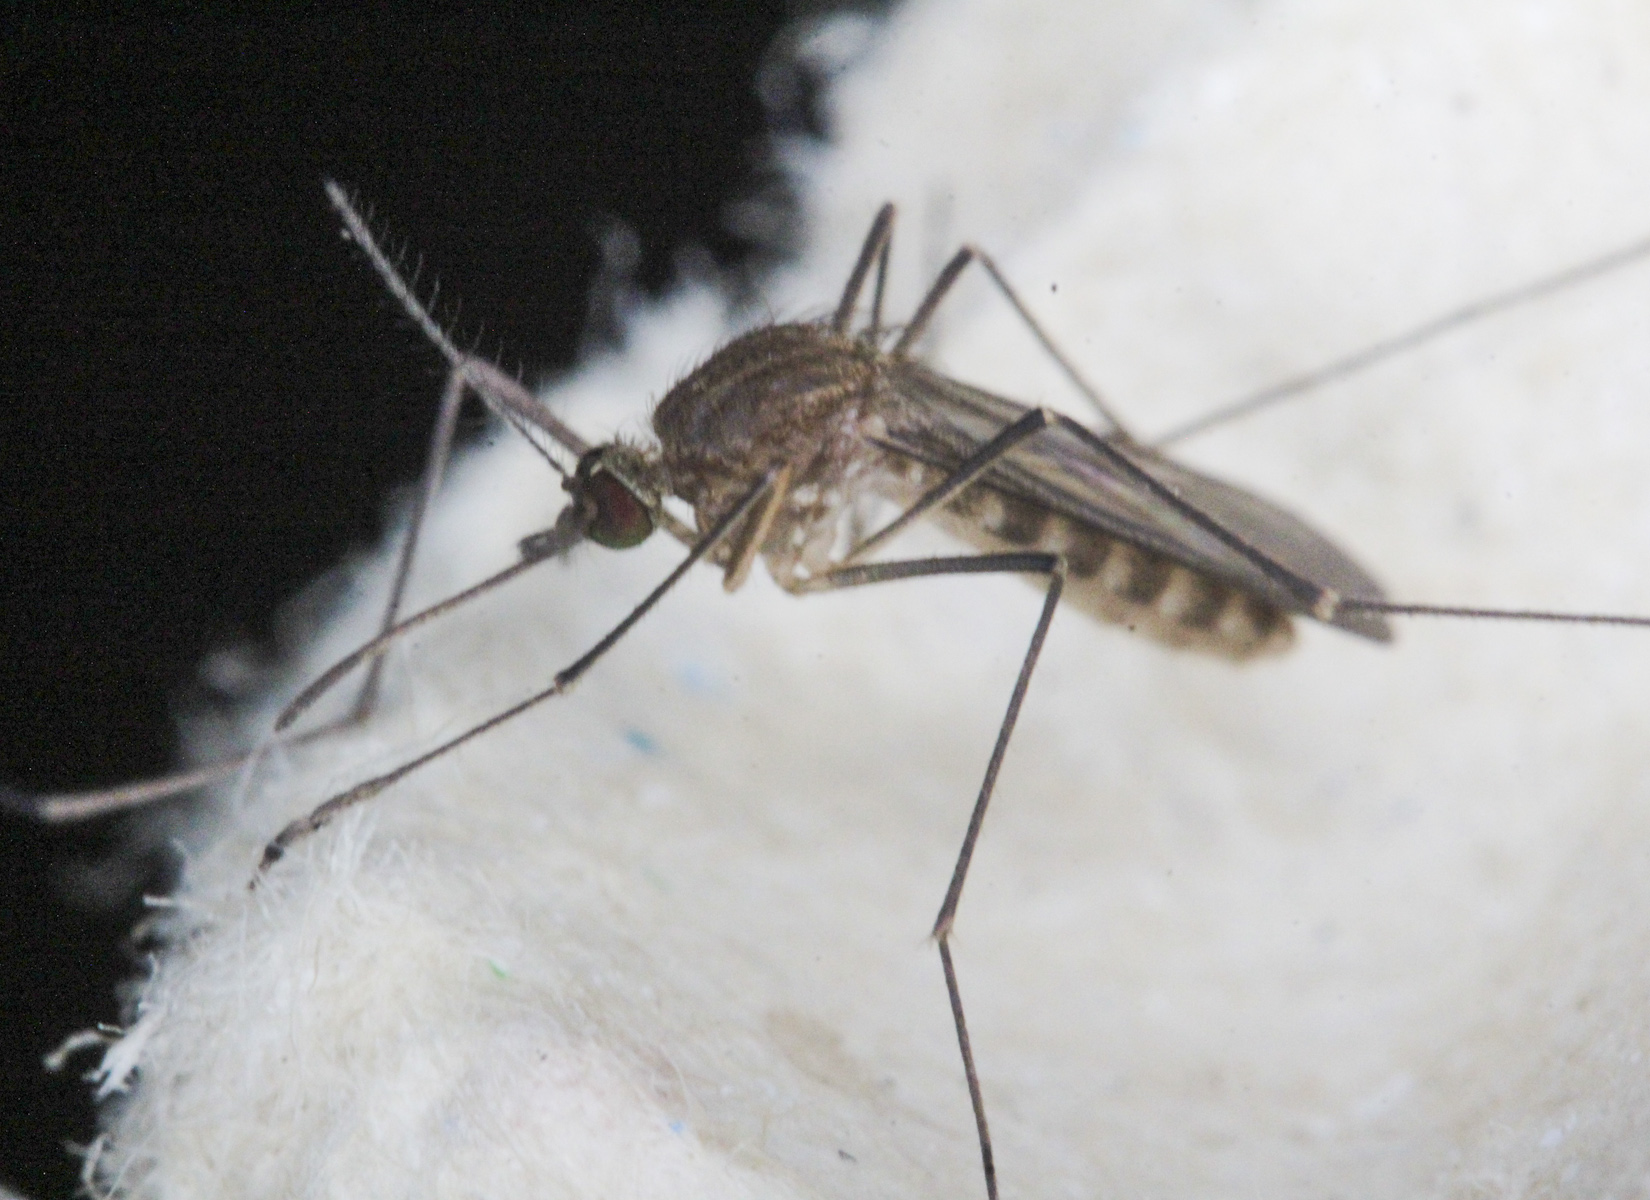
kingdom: Animalia
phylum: Arthropoda
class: Insecta
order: Diptera
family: Culicidae
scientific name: Culicidae
